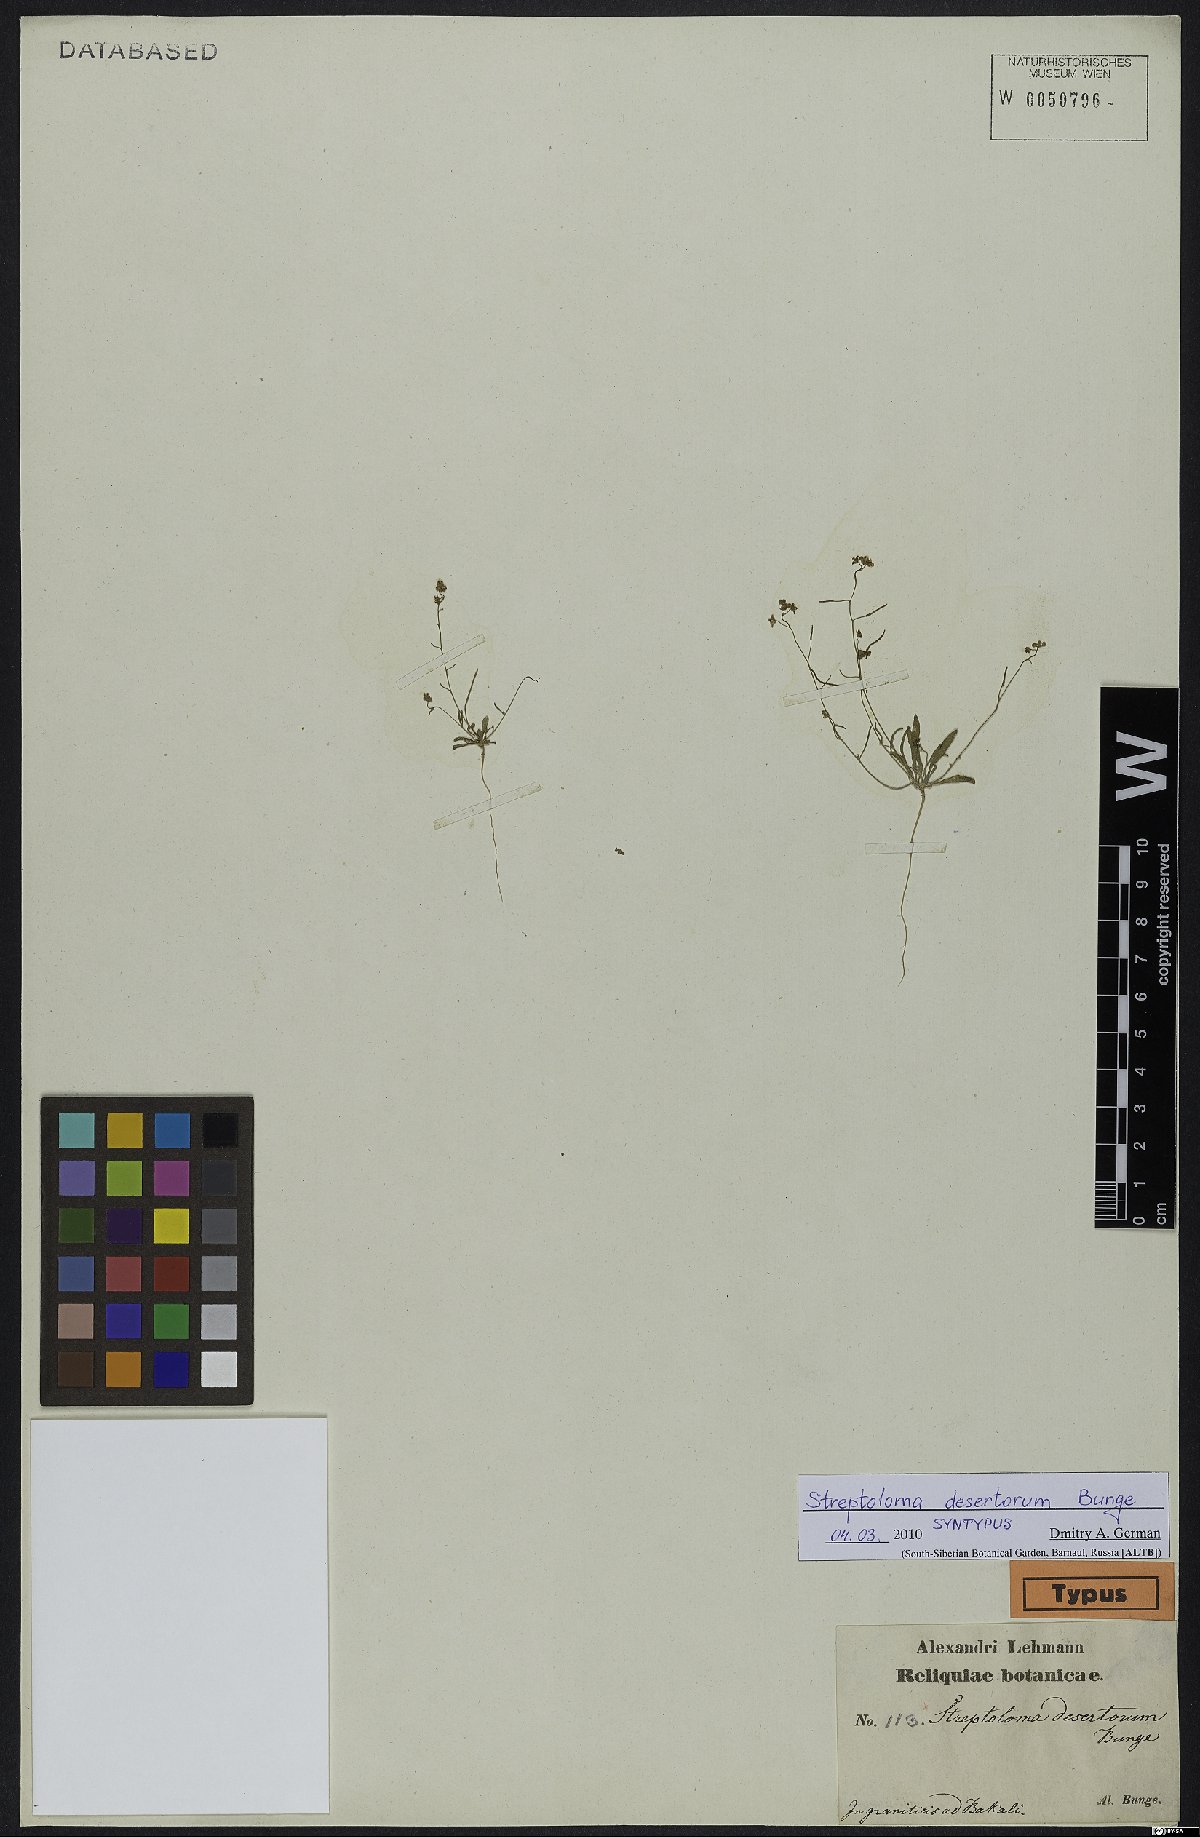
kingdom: Plantae
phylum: Tracheophyta
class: Magnoliopsida
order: Brassicales
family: Brassicaceae
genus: Streptoloma
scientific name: Streptoloma desertorum
